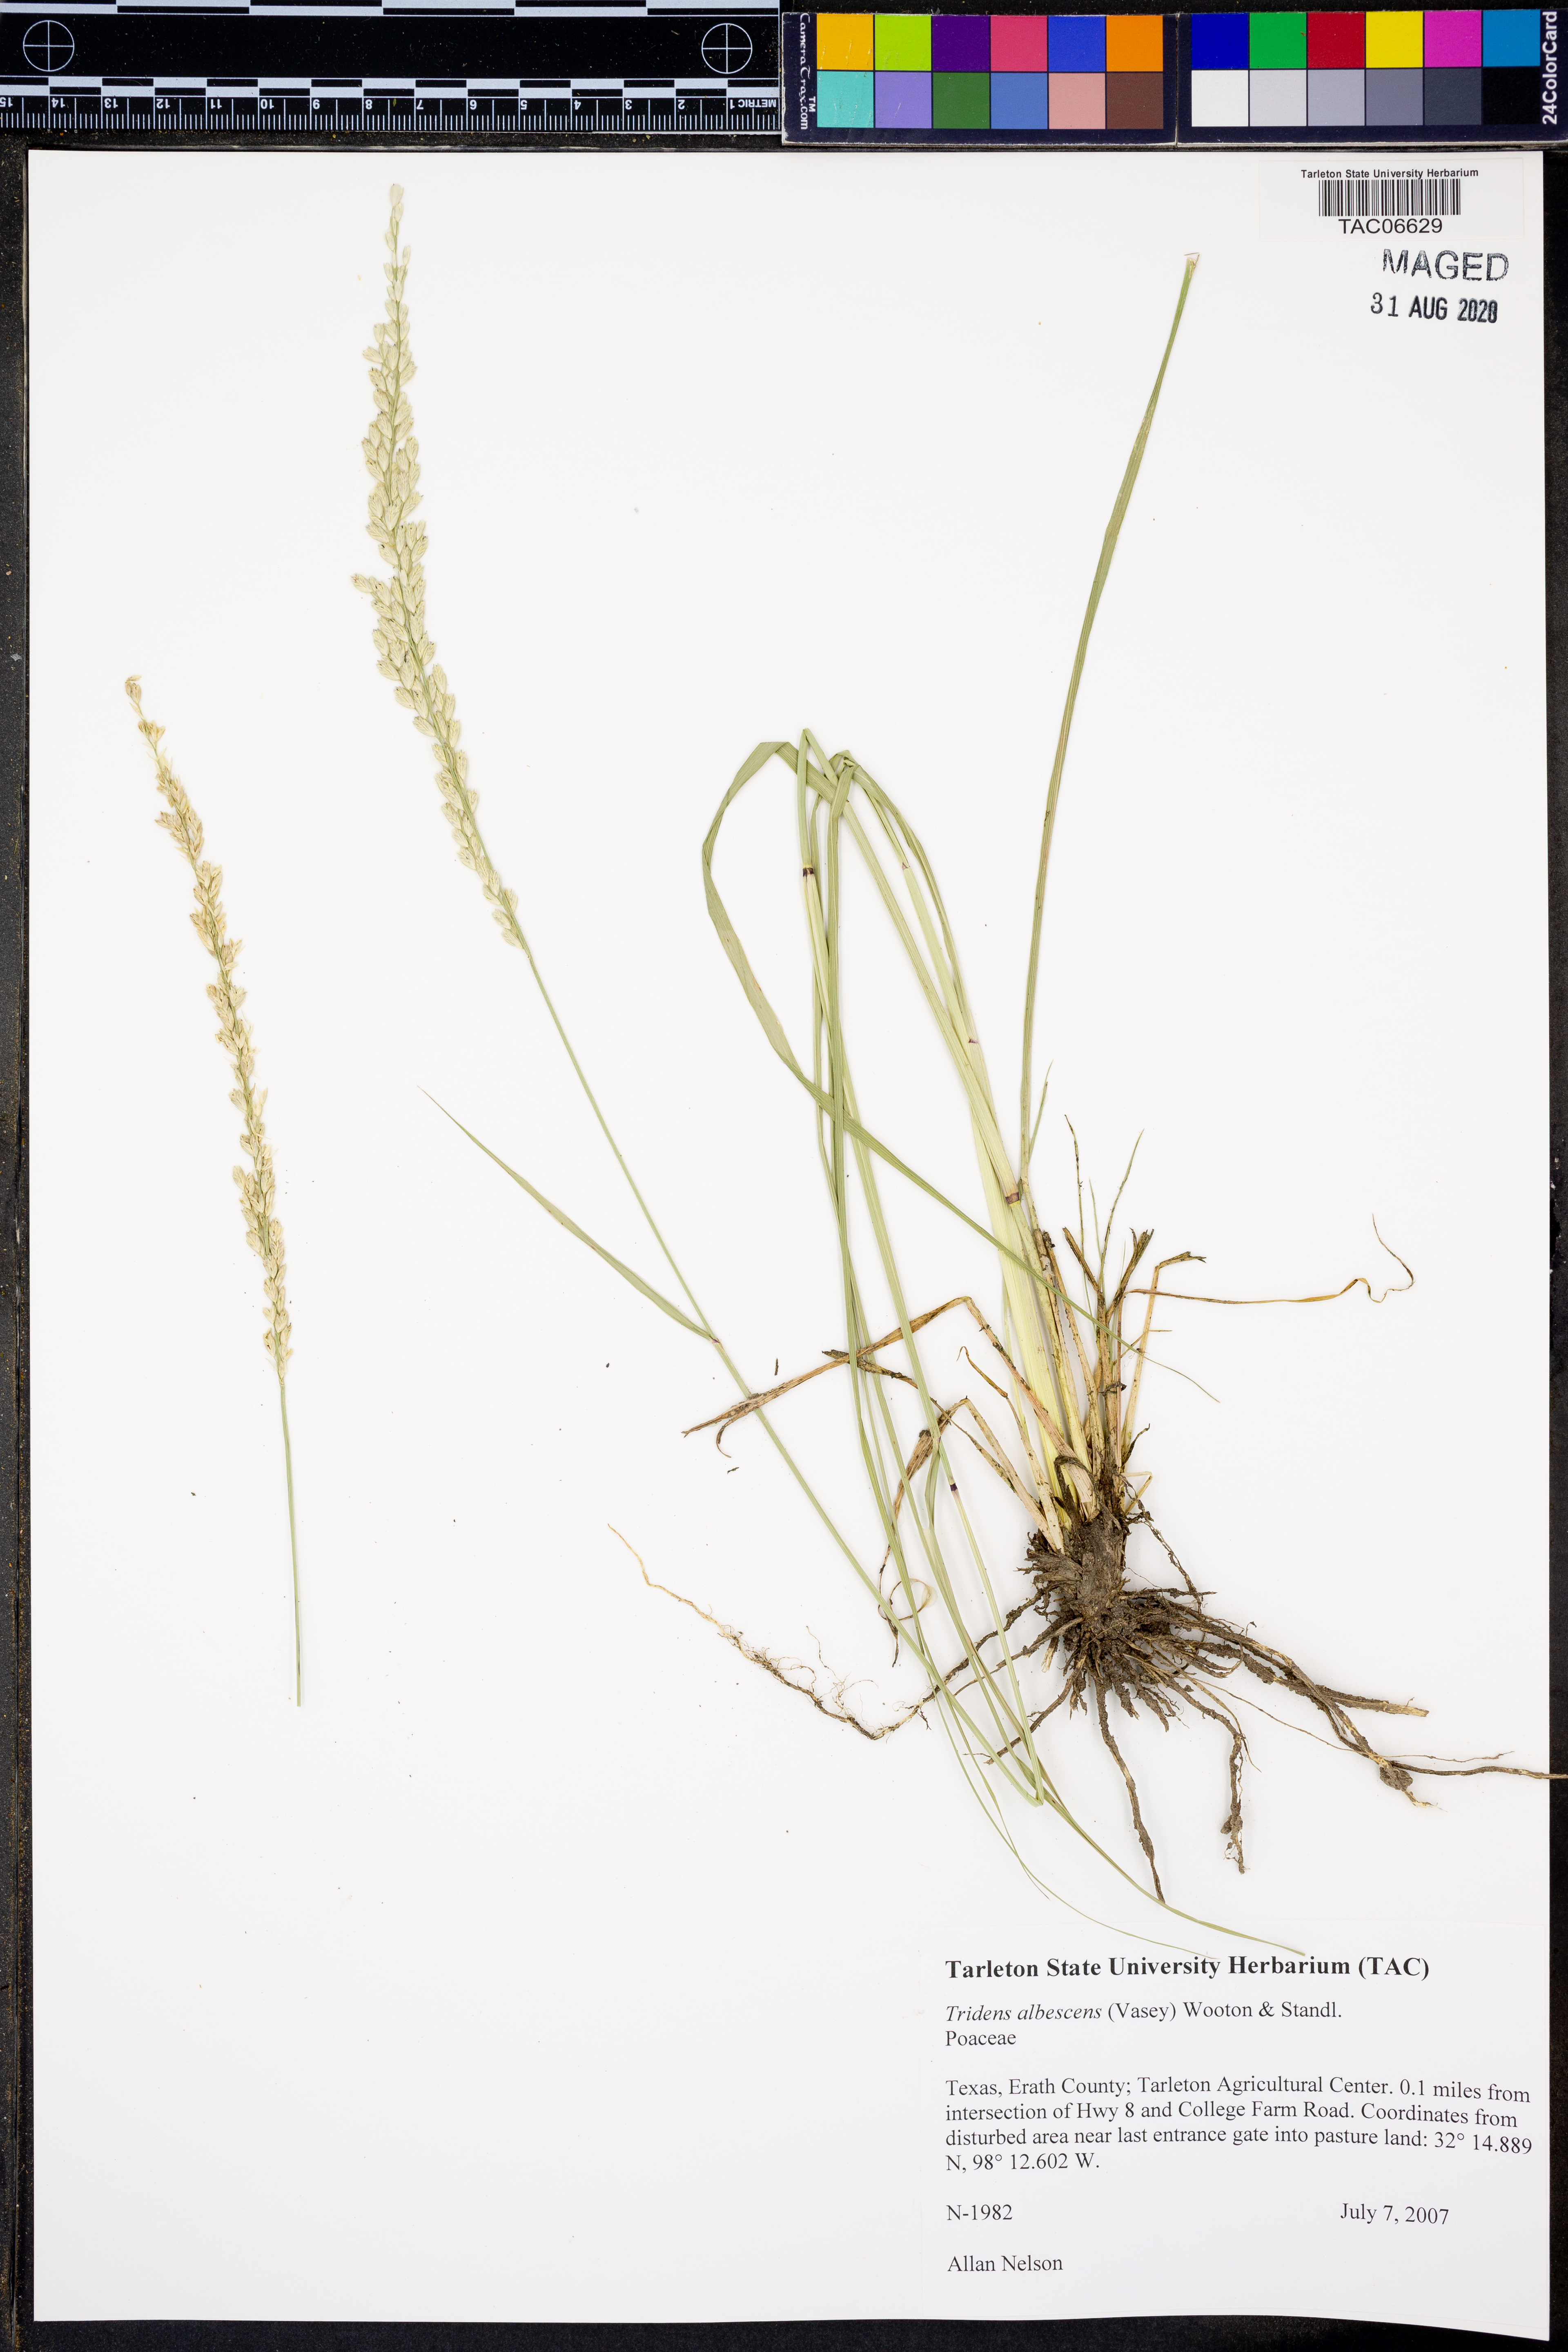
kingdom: Plantae
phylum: Tracheophyta
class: Liliopsida
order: Poales
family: Poaceae
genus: Tridens
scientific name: Tridens albescens
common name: White tridens
